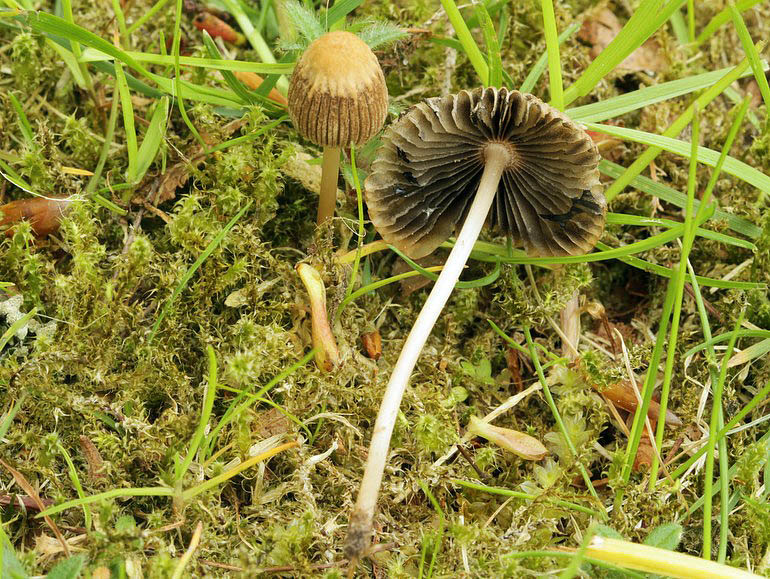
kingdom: Fungi
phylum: Basidiomycota
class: Agaricomycetes
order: Agaricales
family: Psathyrellaceae
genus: Parasola
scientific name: Parasola schroeteri
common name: bredsporet hjulhat
